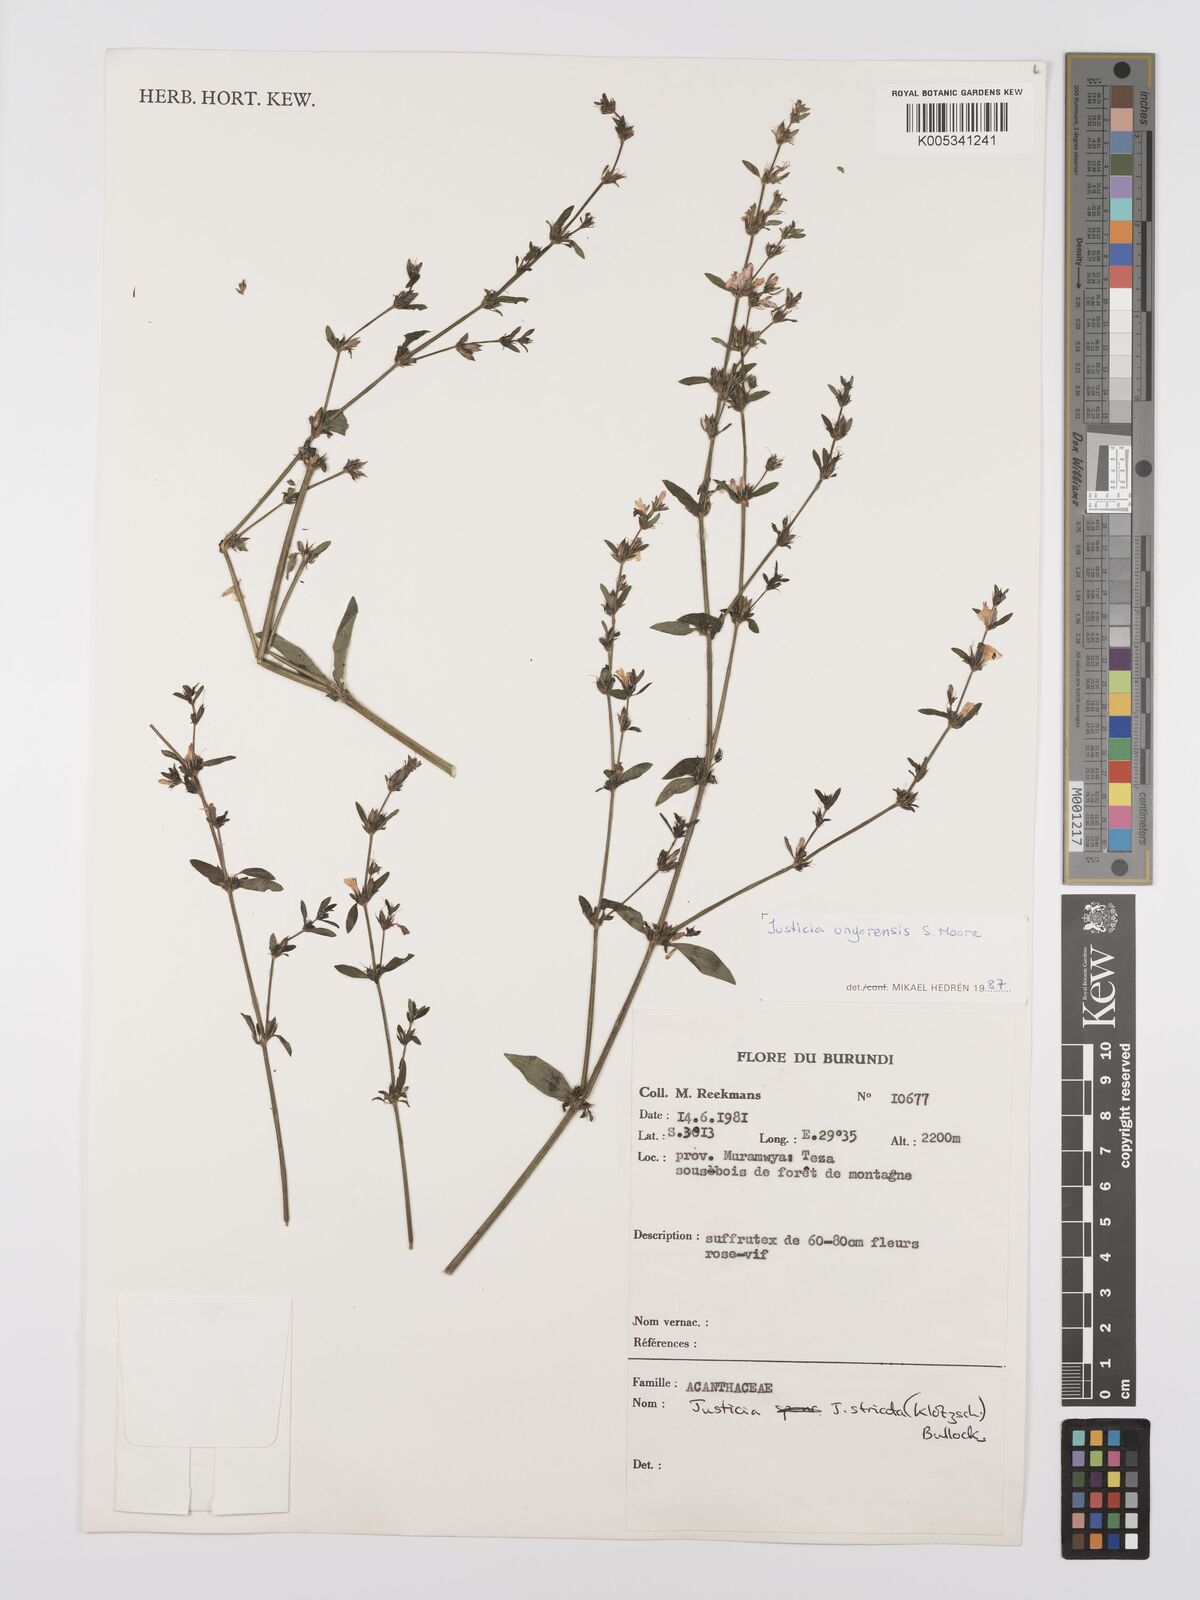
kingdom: Plantae
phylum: Tracheophyta
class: Magnoliopsida
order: Lamiales
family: Acanthaceae
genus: Justicia
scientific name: Justicia unyorensis
